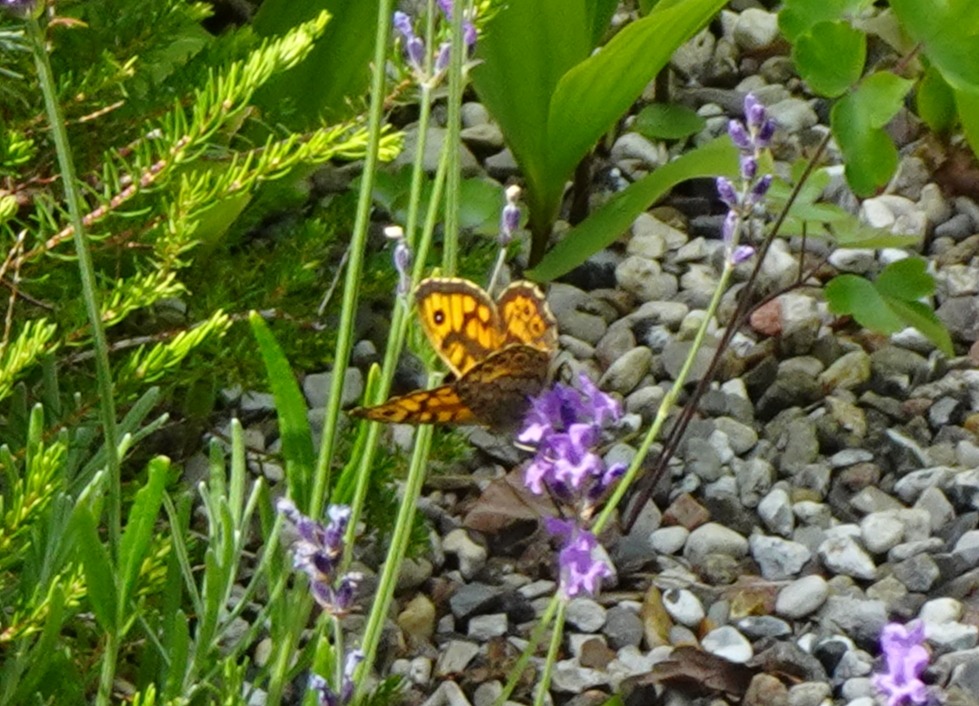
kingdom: Animalia
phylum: Arthropoda
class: Insecta
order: Lepidoptera
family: Nymphalidae
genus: Pararge
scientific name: Pararge Lasiommata megera
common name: Vejrandøje
